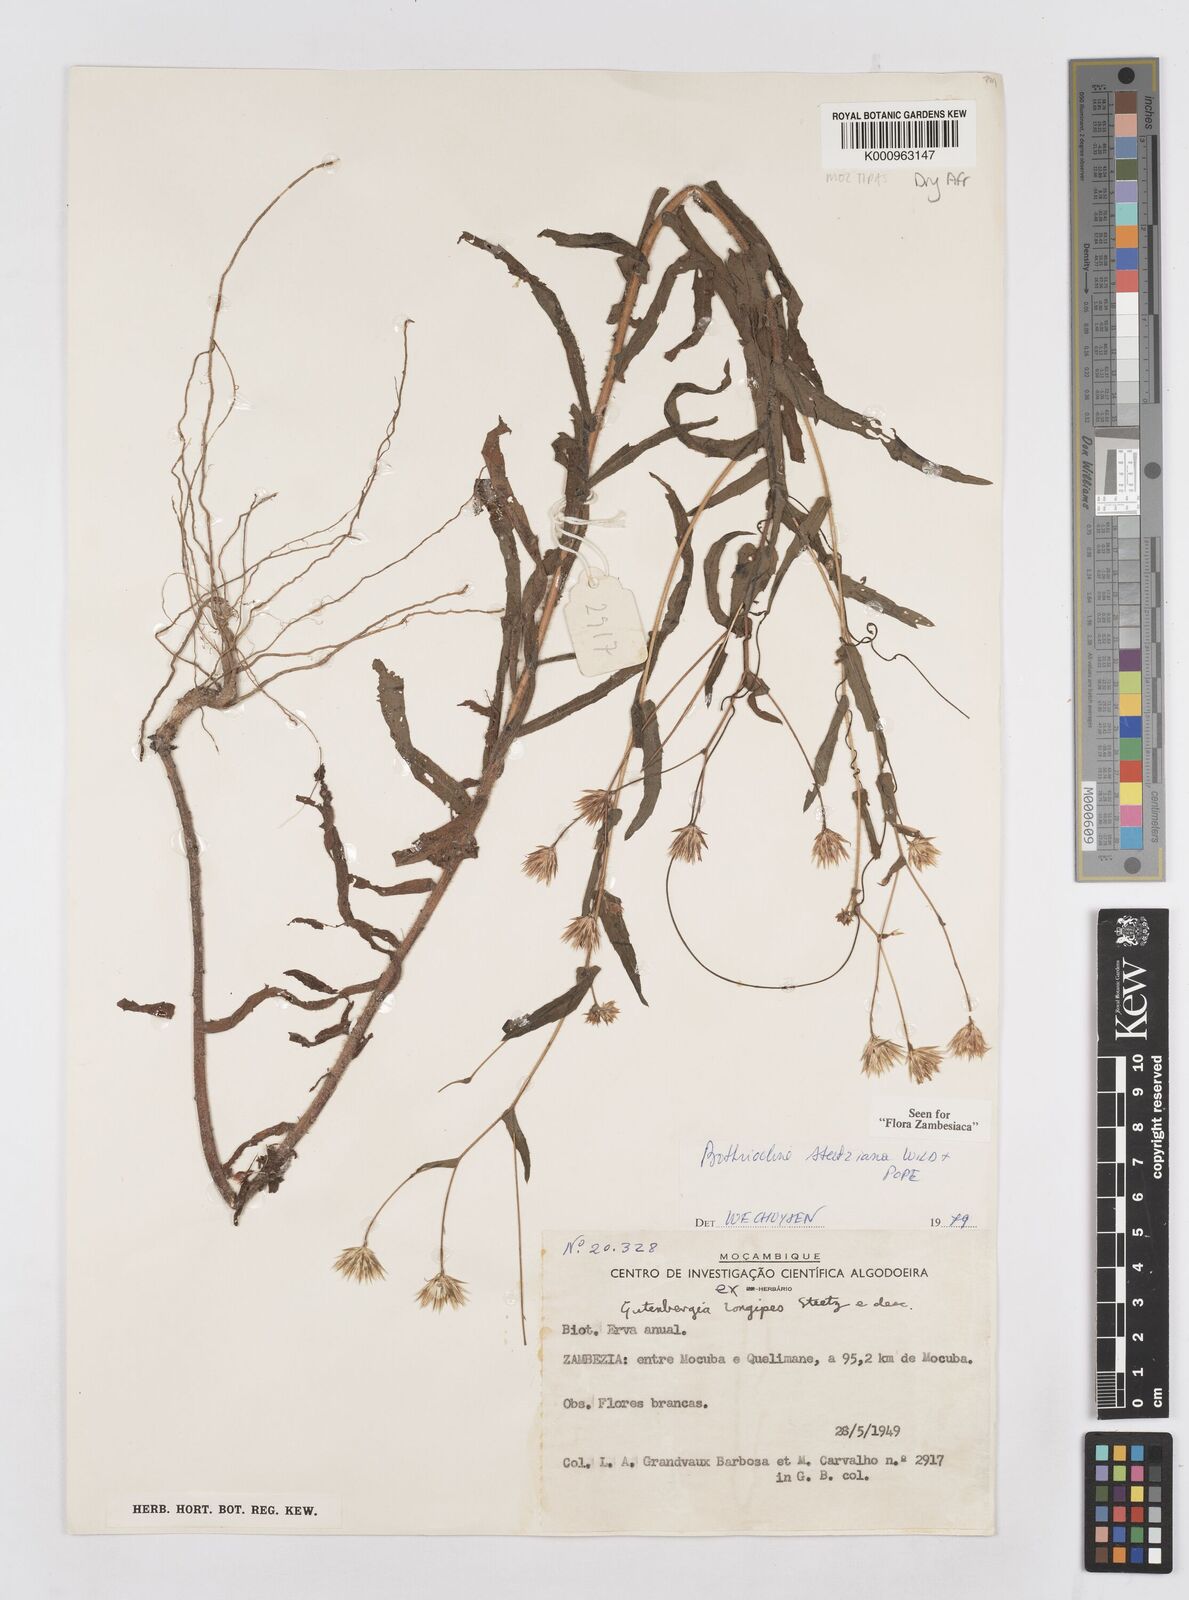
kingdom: Plantae
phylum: Tracheophyta
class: Magnoliopsida
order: Asterales
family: Asteraceae
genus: Bothriocline
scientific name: Bothriocline steetziana
